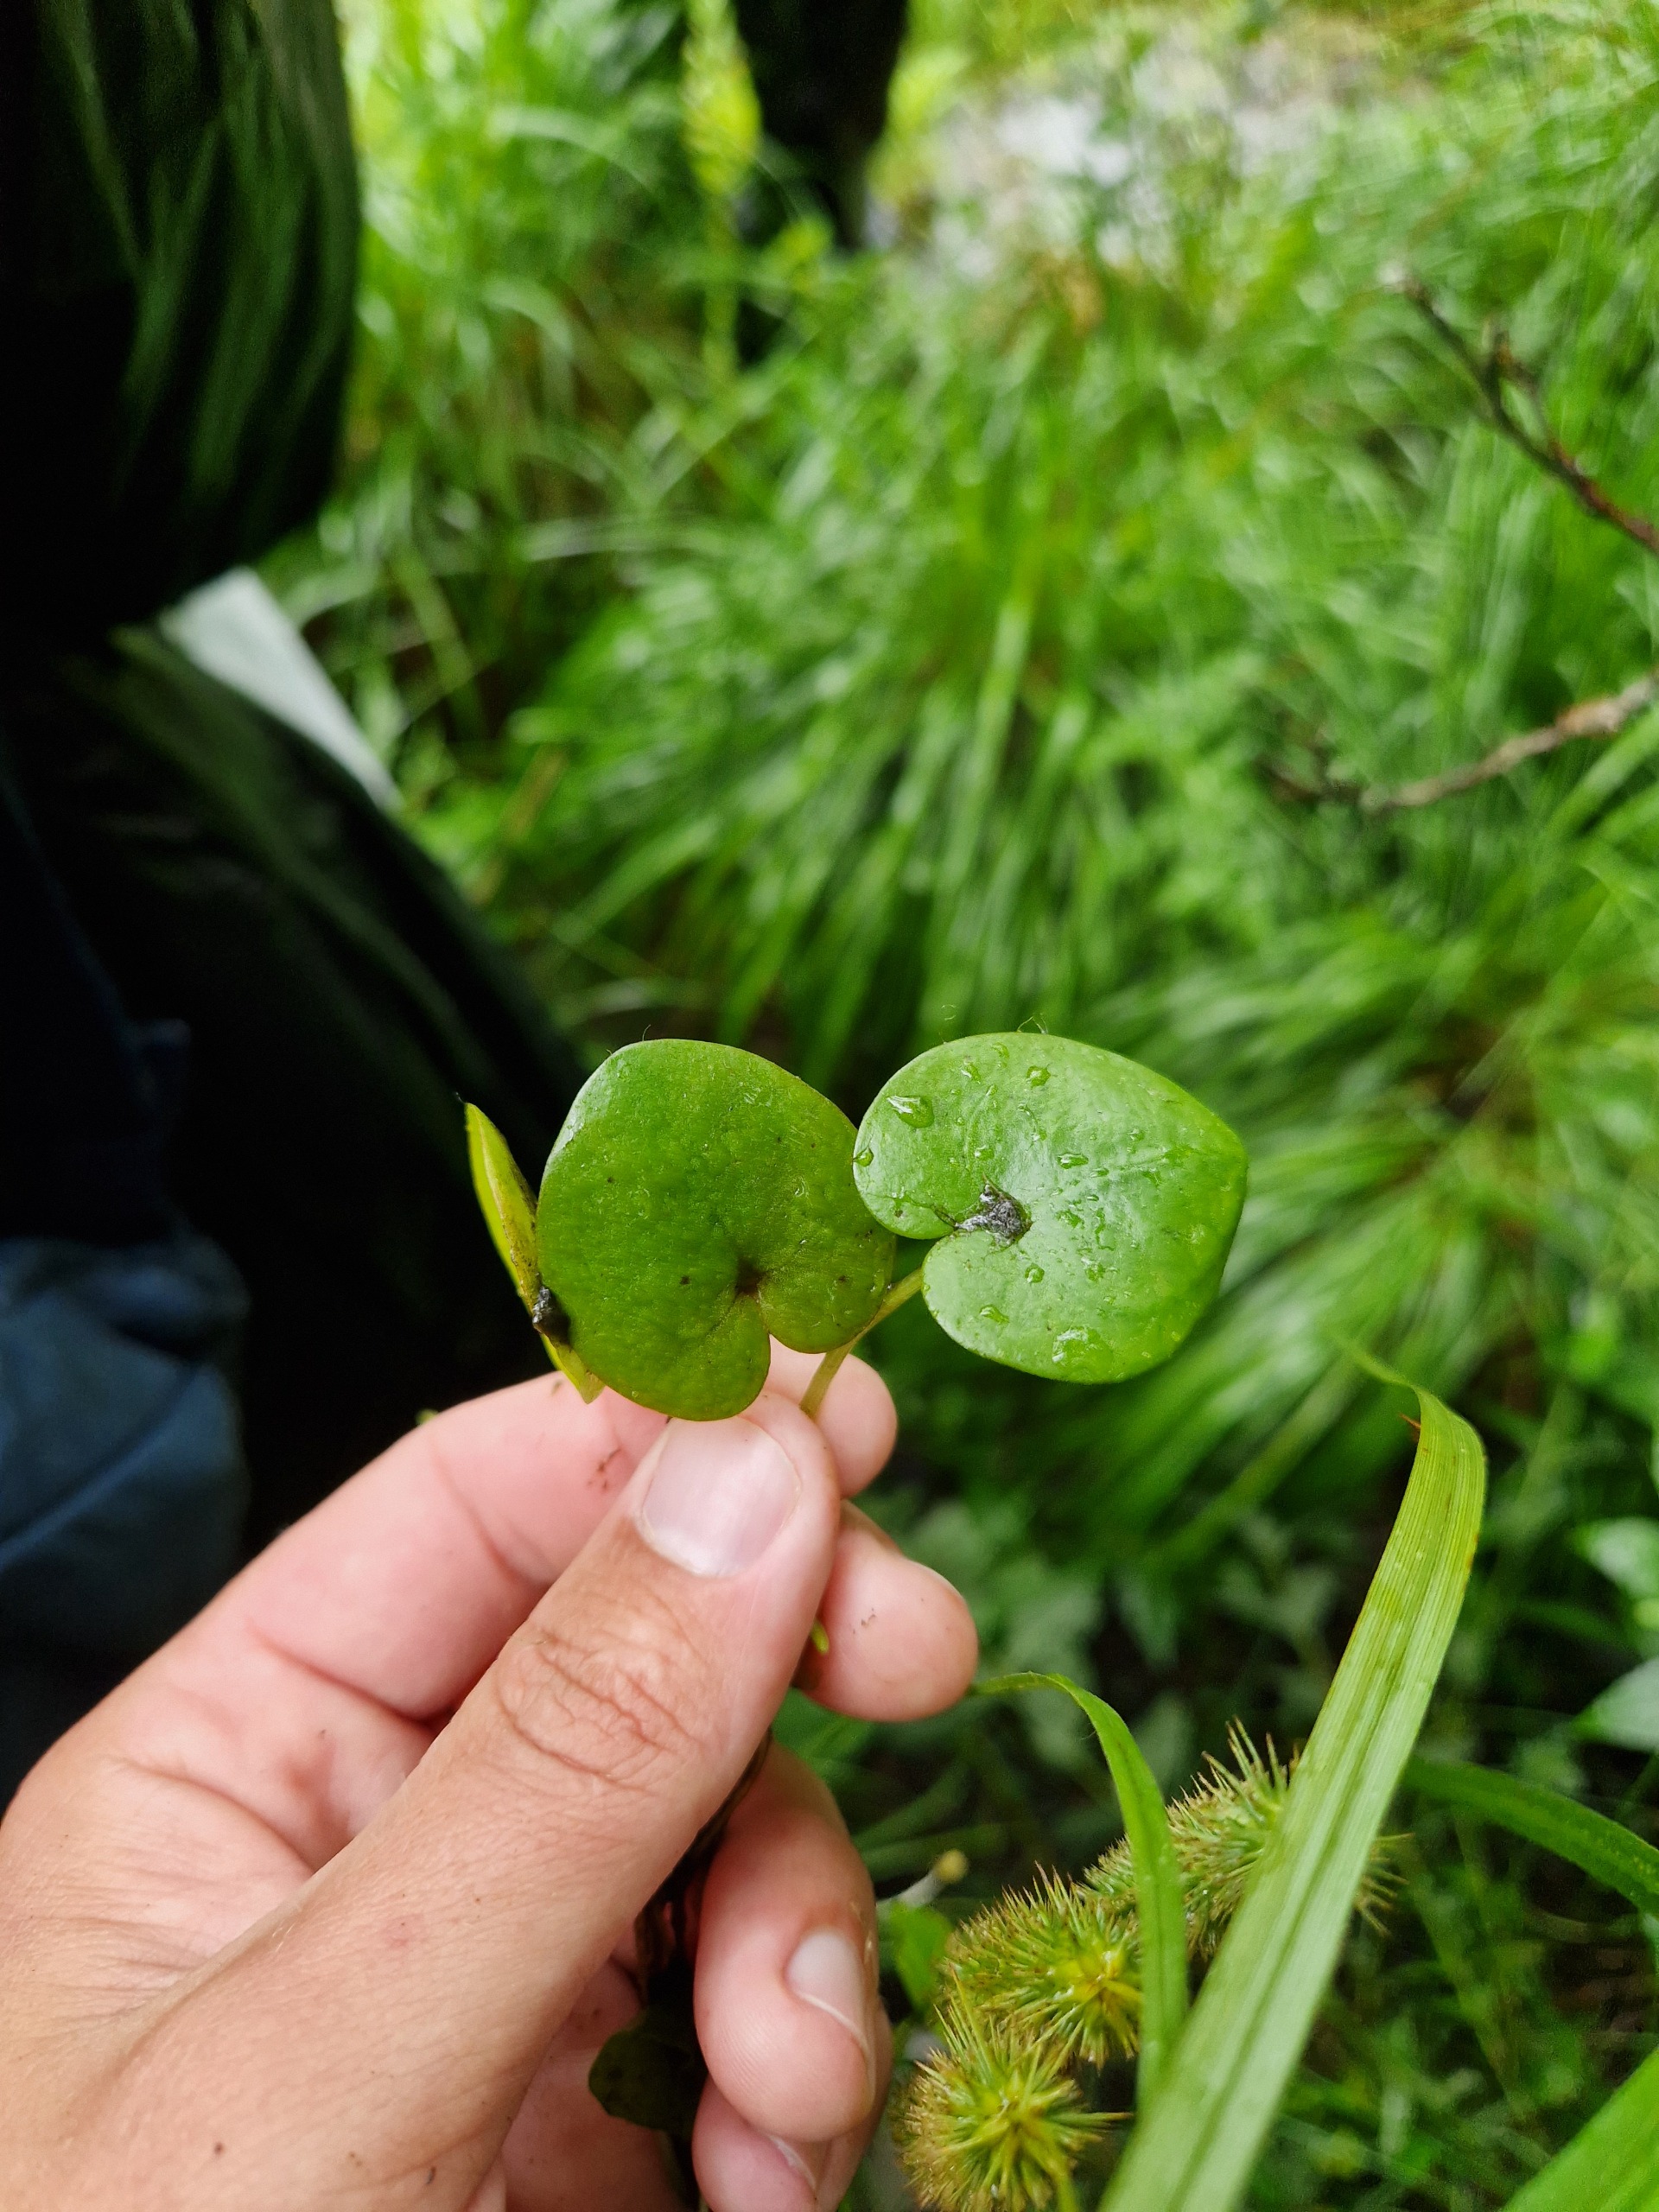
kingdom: Plantae
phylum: Tracheophyta
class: Liliopsida
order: Alismatales
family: Hydrocharitaceae
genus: Hydrocharis
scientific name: Hydrocharis morsus-ranae
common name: Frøbid
